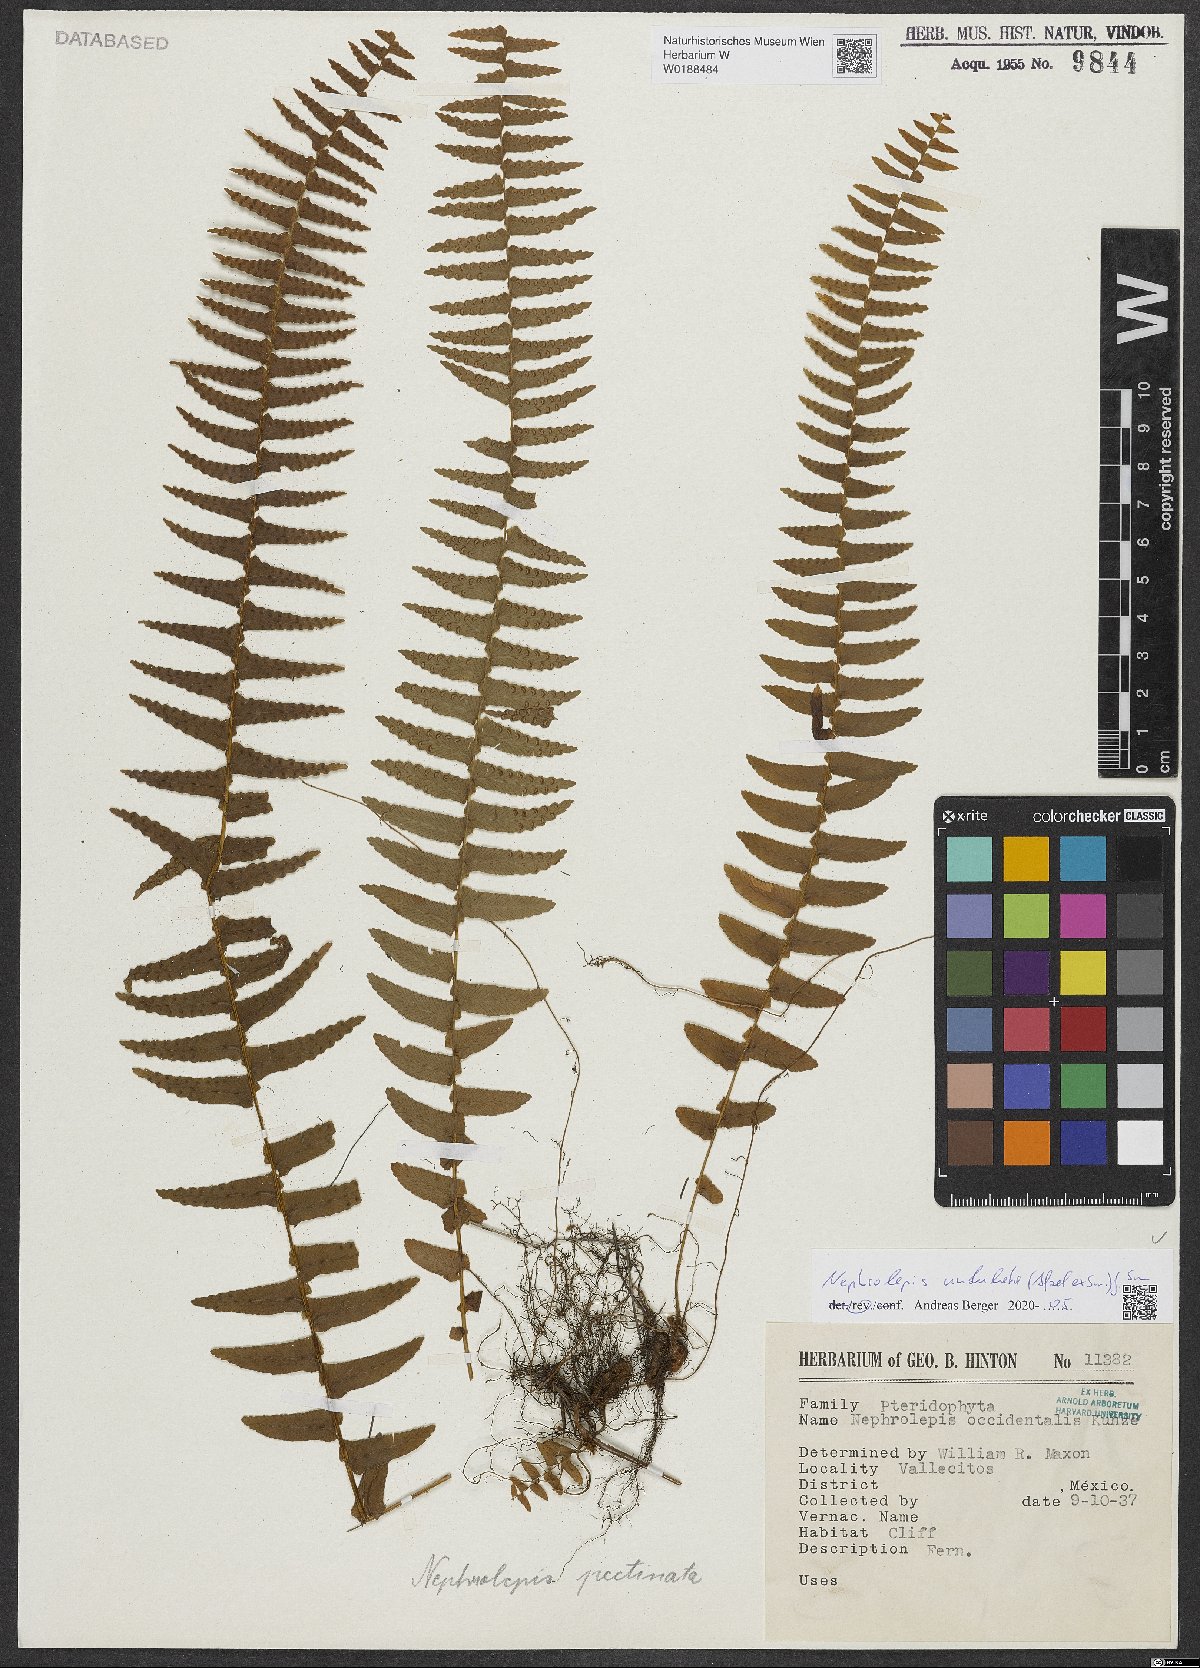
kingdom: Plantae
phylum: Tracheophyta
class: Polypodiopsida
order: Polypodiales
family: Nephrolepidaceae
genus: Nephrolepis
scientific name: Nephrolepis undulata
